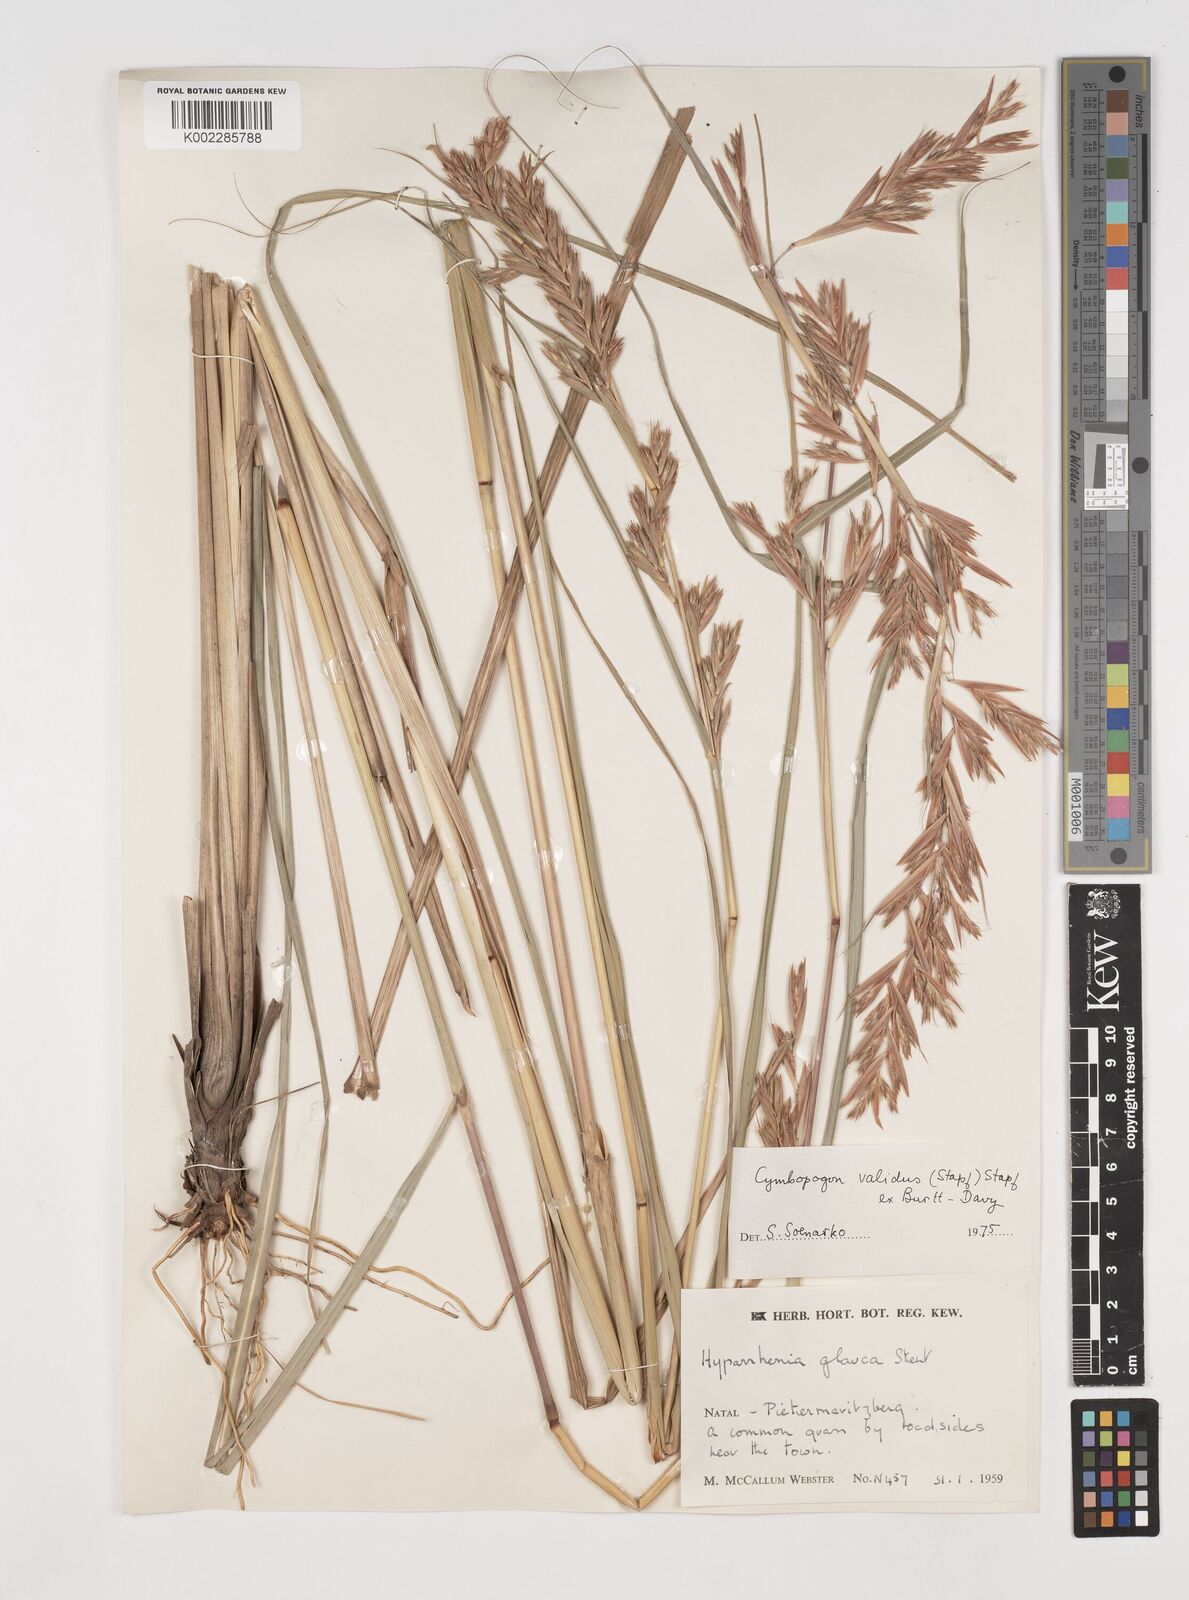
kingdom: Plantae
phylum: Tracheophyta
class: Liliopsida
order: Poales
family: Poaceae
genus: Cymbopogon
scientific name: Cymbopogon nardus
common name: Giant turpentine grass
